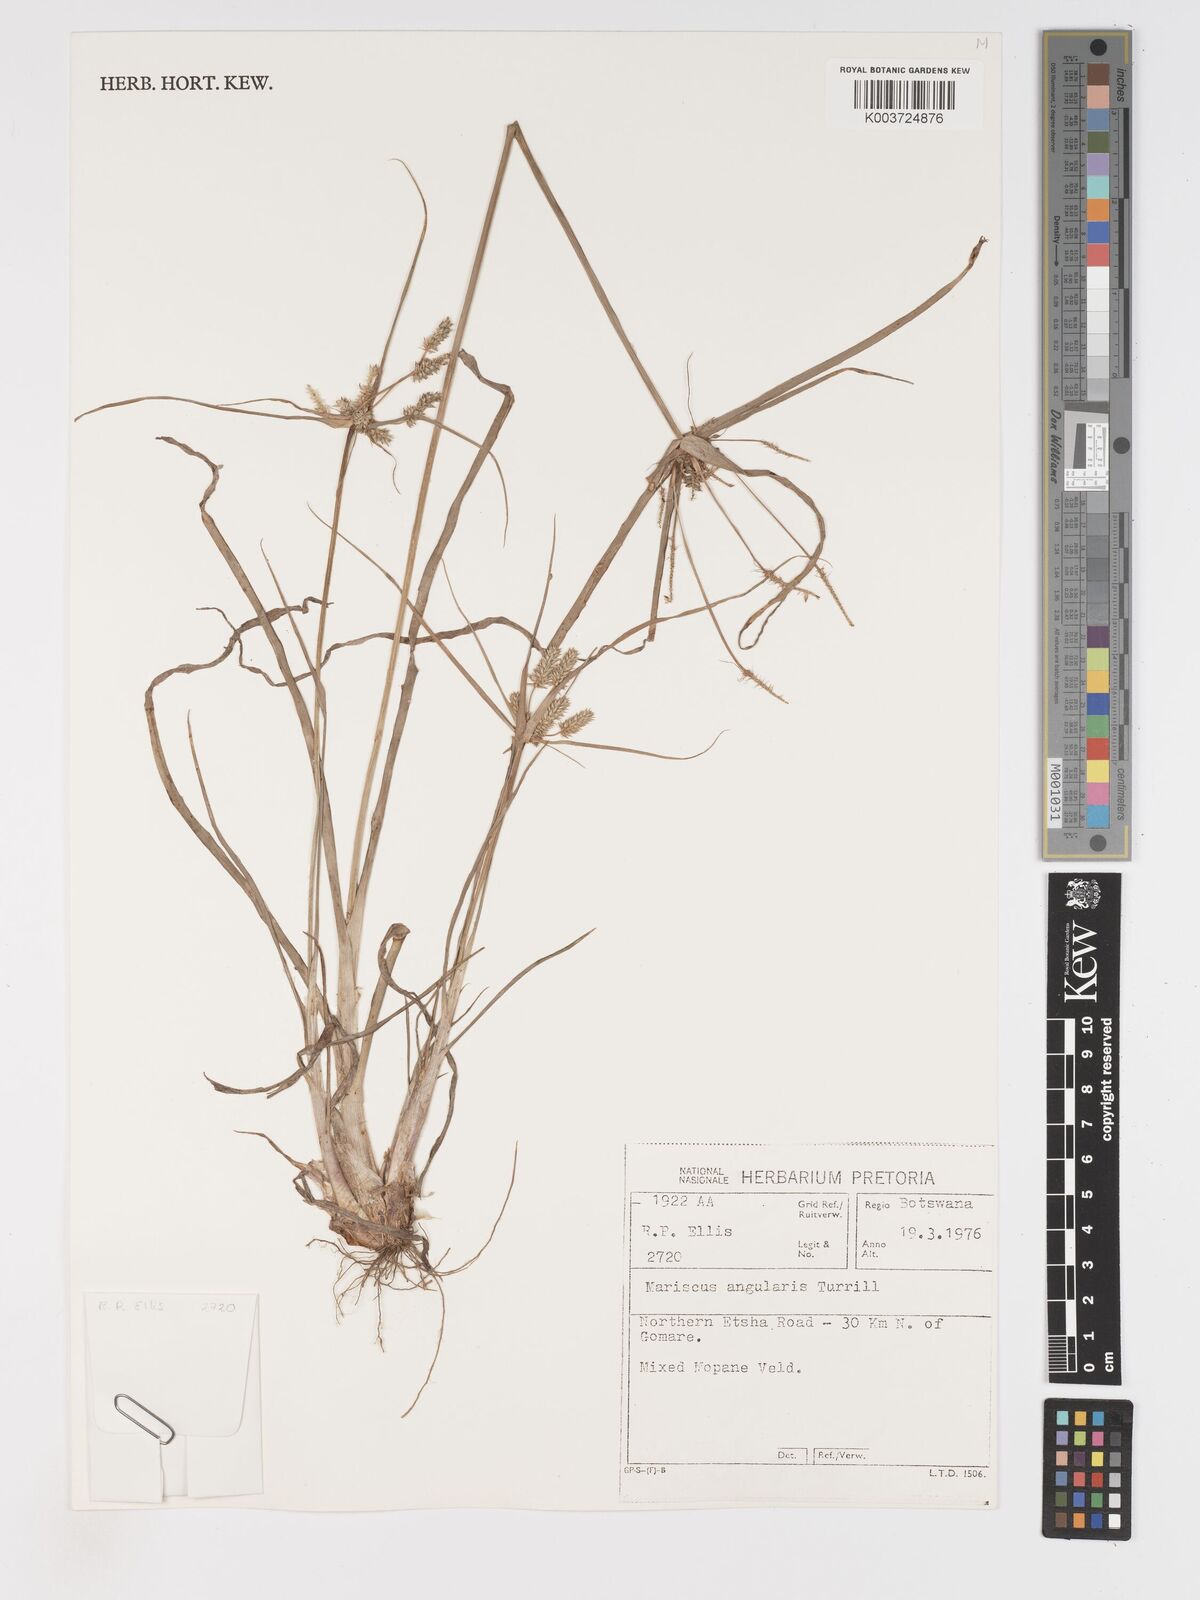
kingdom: Plantae
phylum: Tracheophyta
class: Liliopsida
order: Poales
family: Cyperaceae
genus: Cyperus
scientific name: Cyperus chersinus
